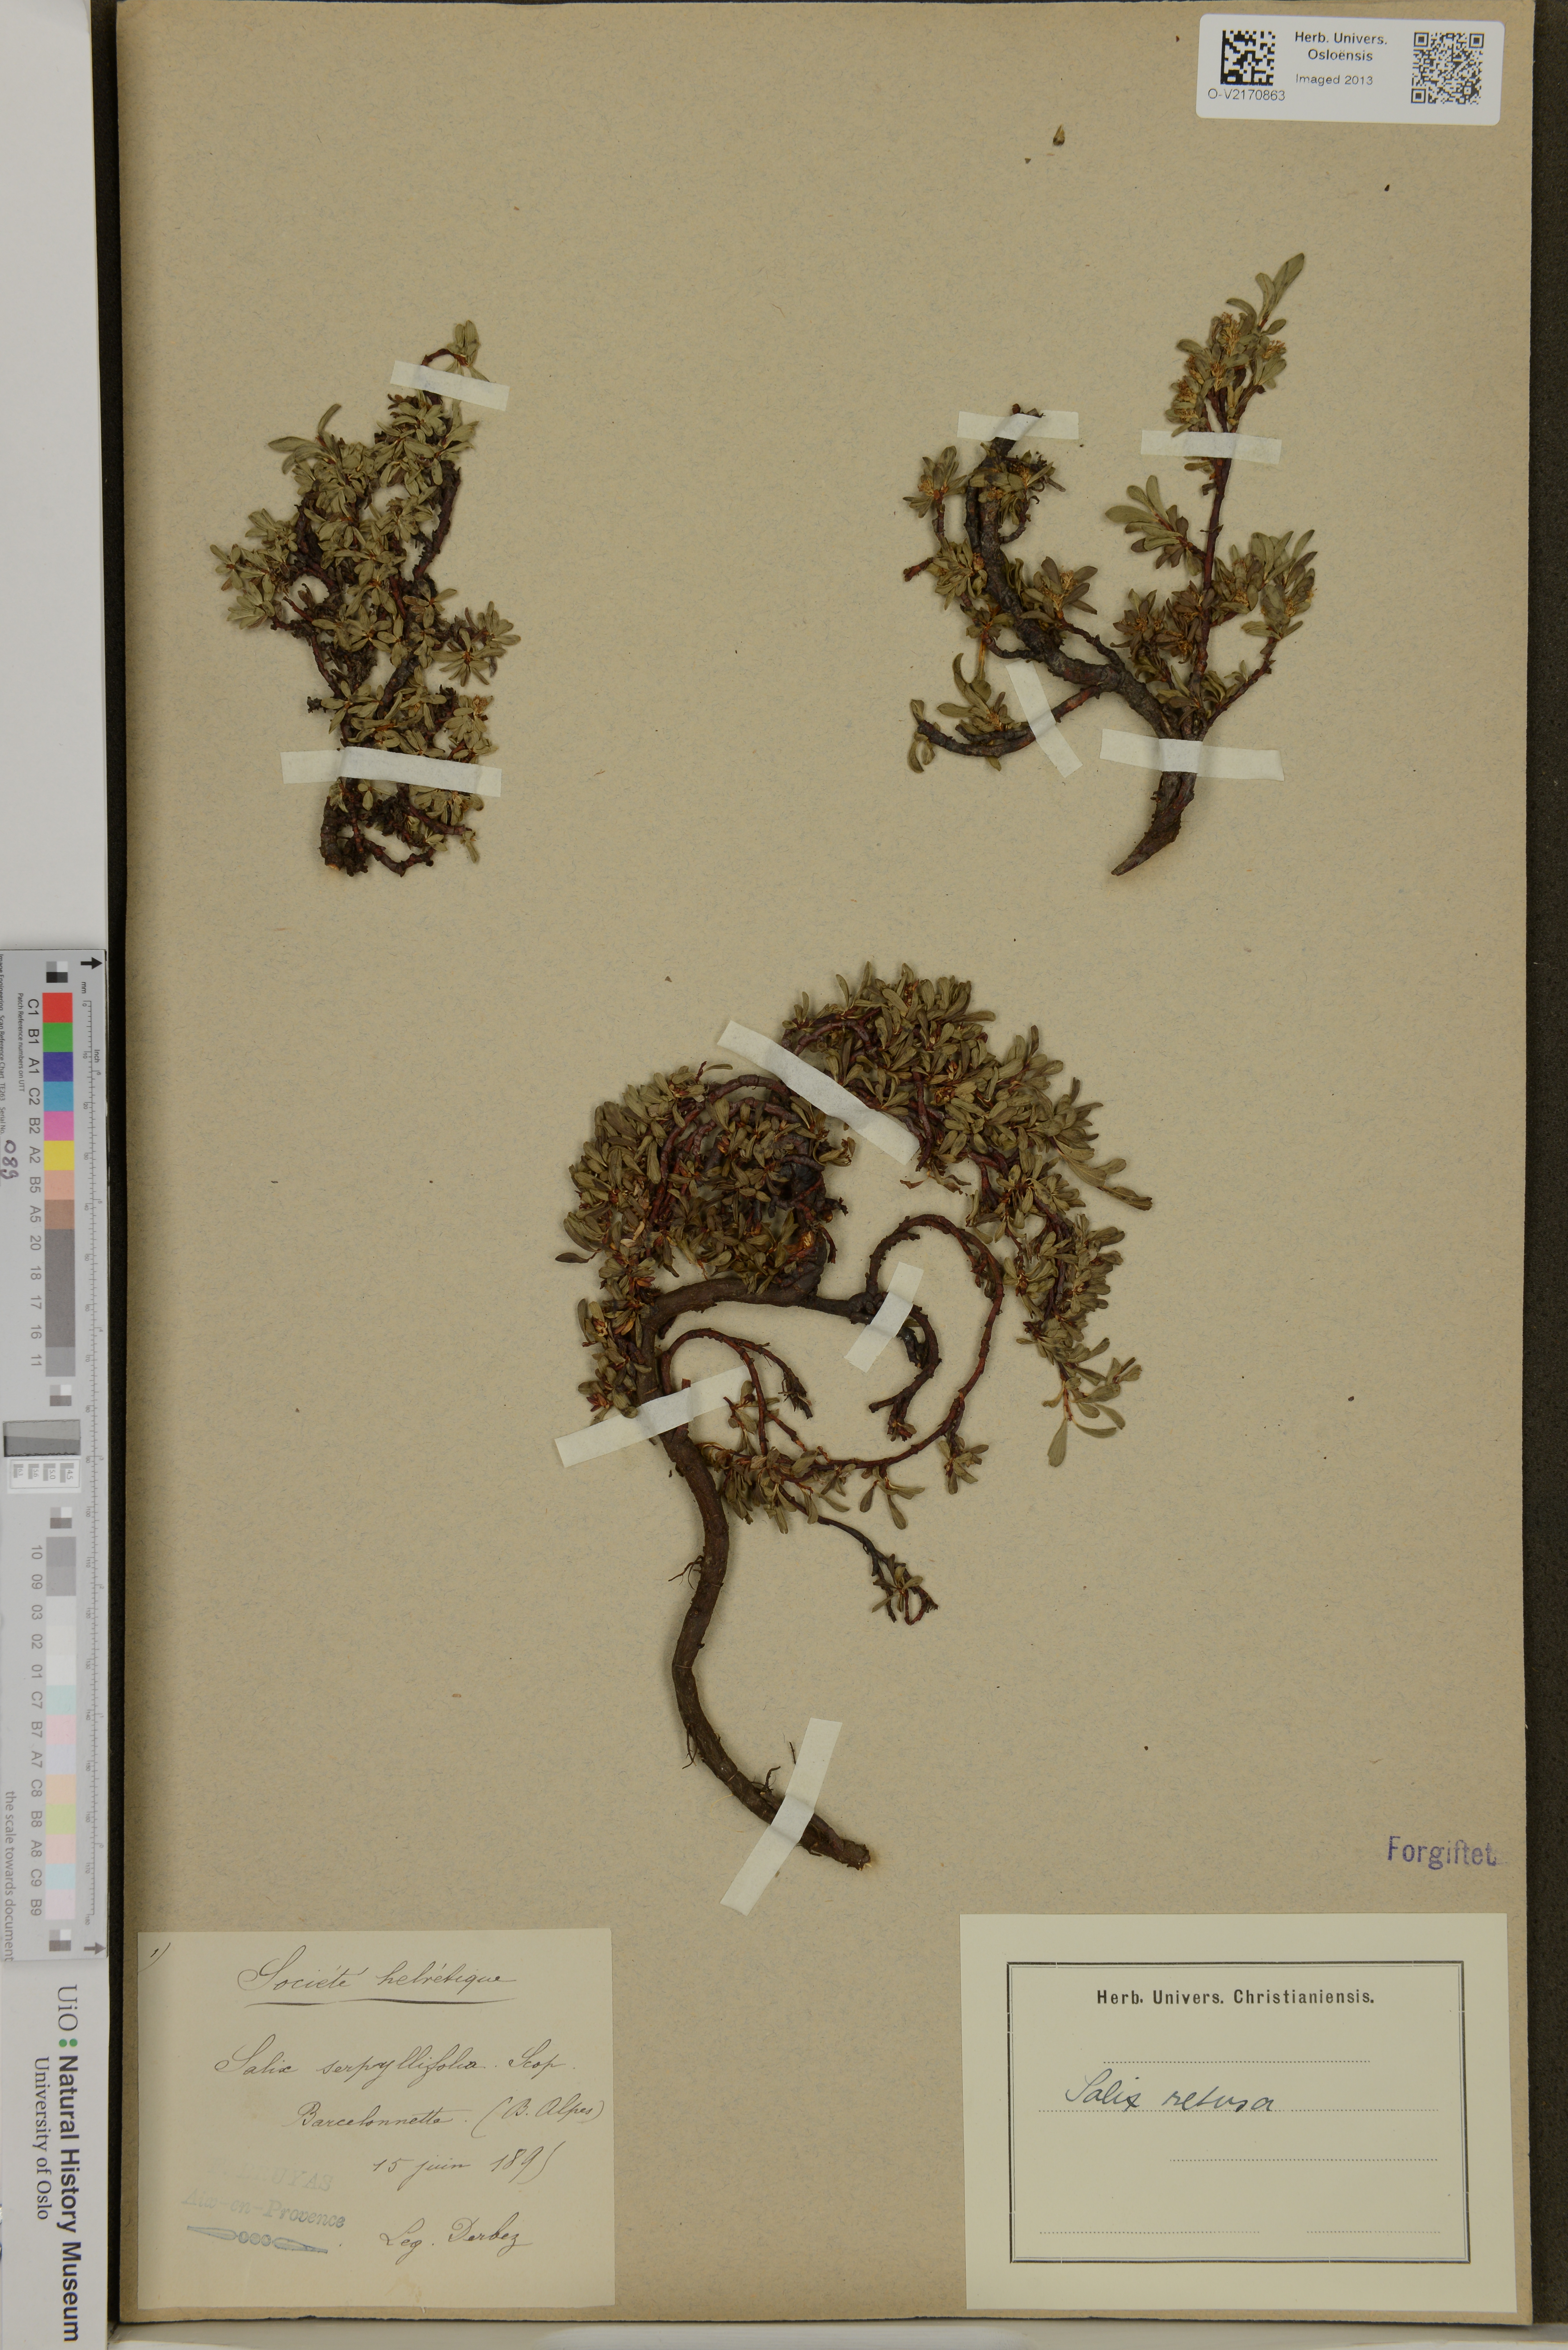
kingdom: Plantae
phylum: Tracheophyta
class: Magnoliopsida
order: Malpighiales
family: Salicaceae
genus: Salix
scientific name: Salix serpillifolia
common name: Thyme-leaf willow
